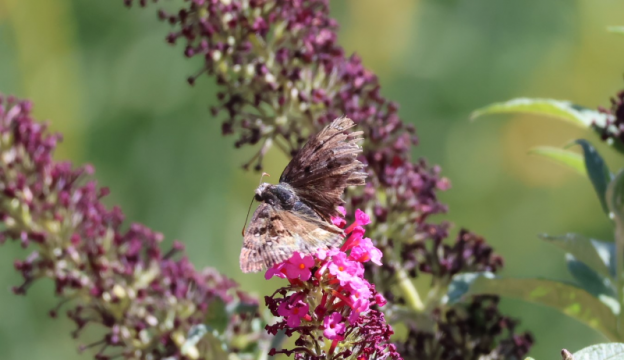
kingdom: Animalia
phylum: Arthropoda
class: Insecta
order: Lepidoptera
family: Hesperiidae
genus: Erynnis
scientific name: Erynnis tristis
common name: Mournful Duskywing
